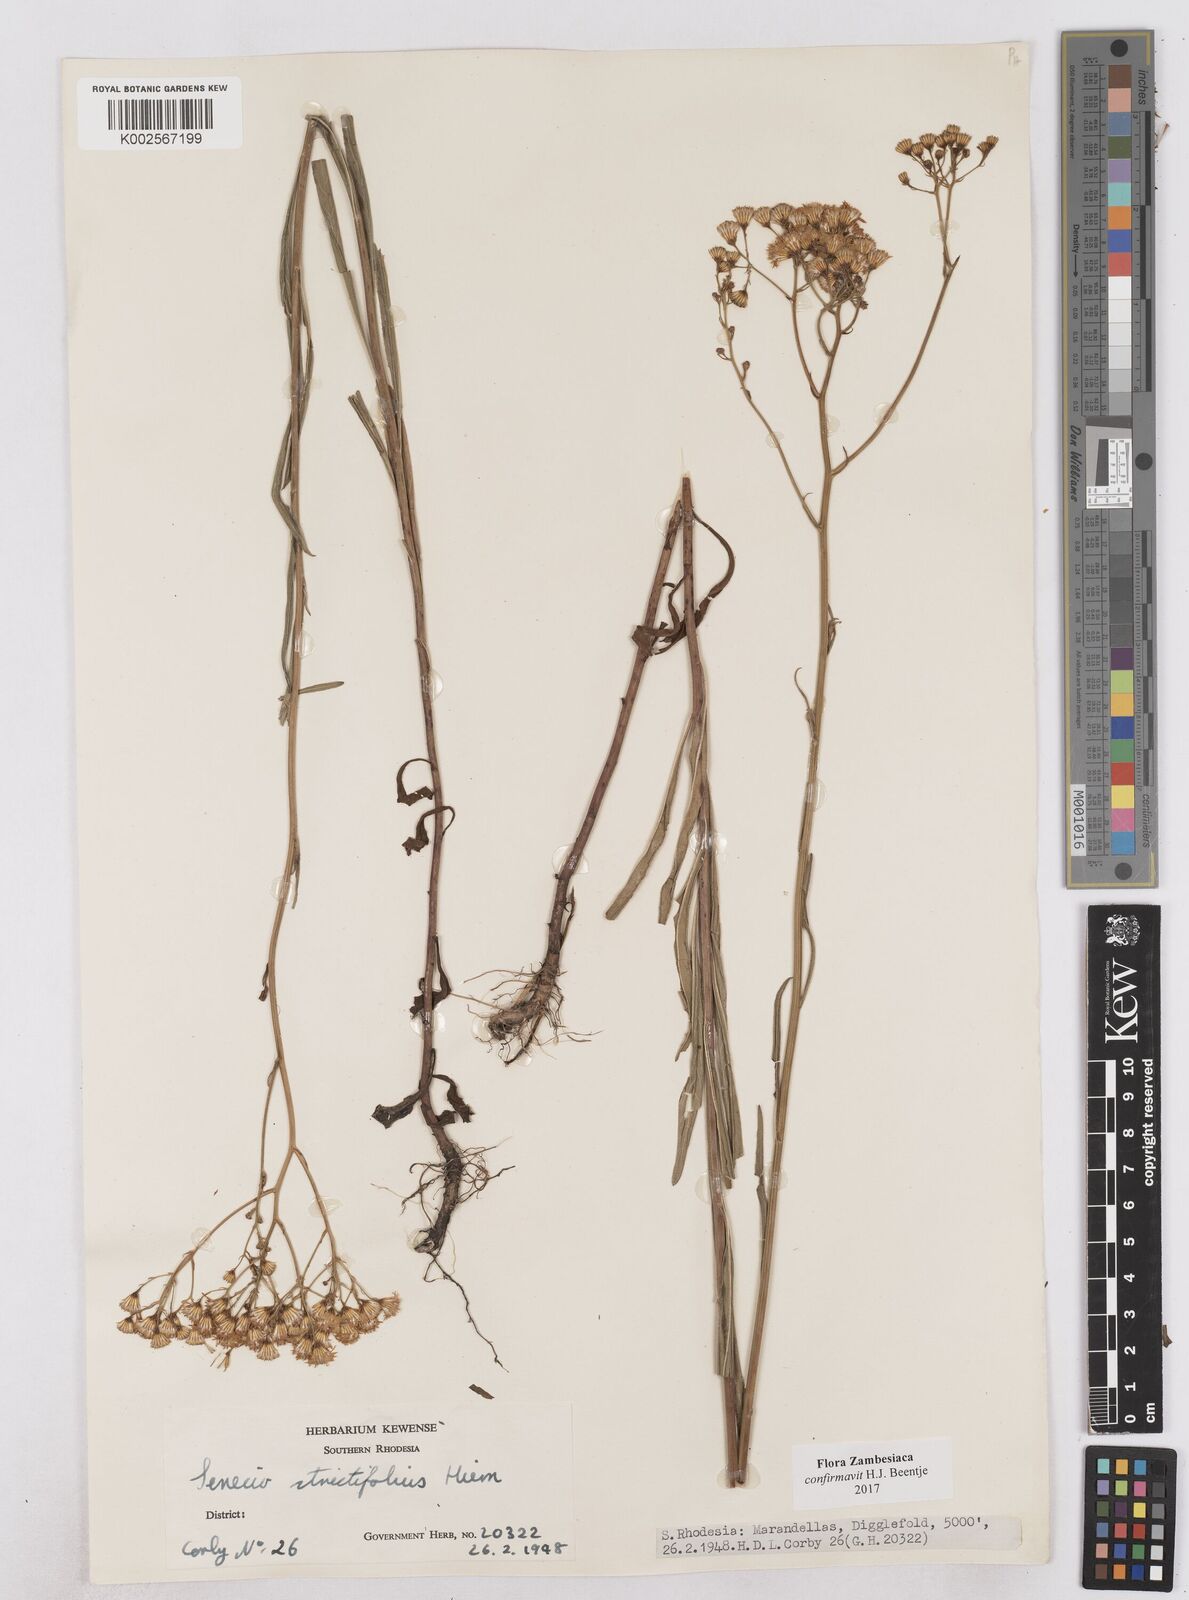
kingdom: Plantae
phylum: Tracheophyta
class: Magnoliopsida
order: Asterales
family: Asteraceae
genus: Senecio
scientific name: Senecio strictifolius
